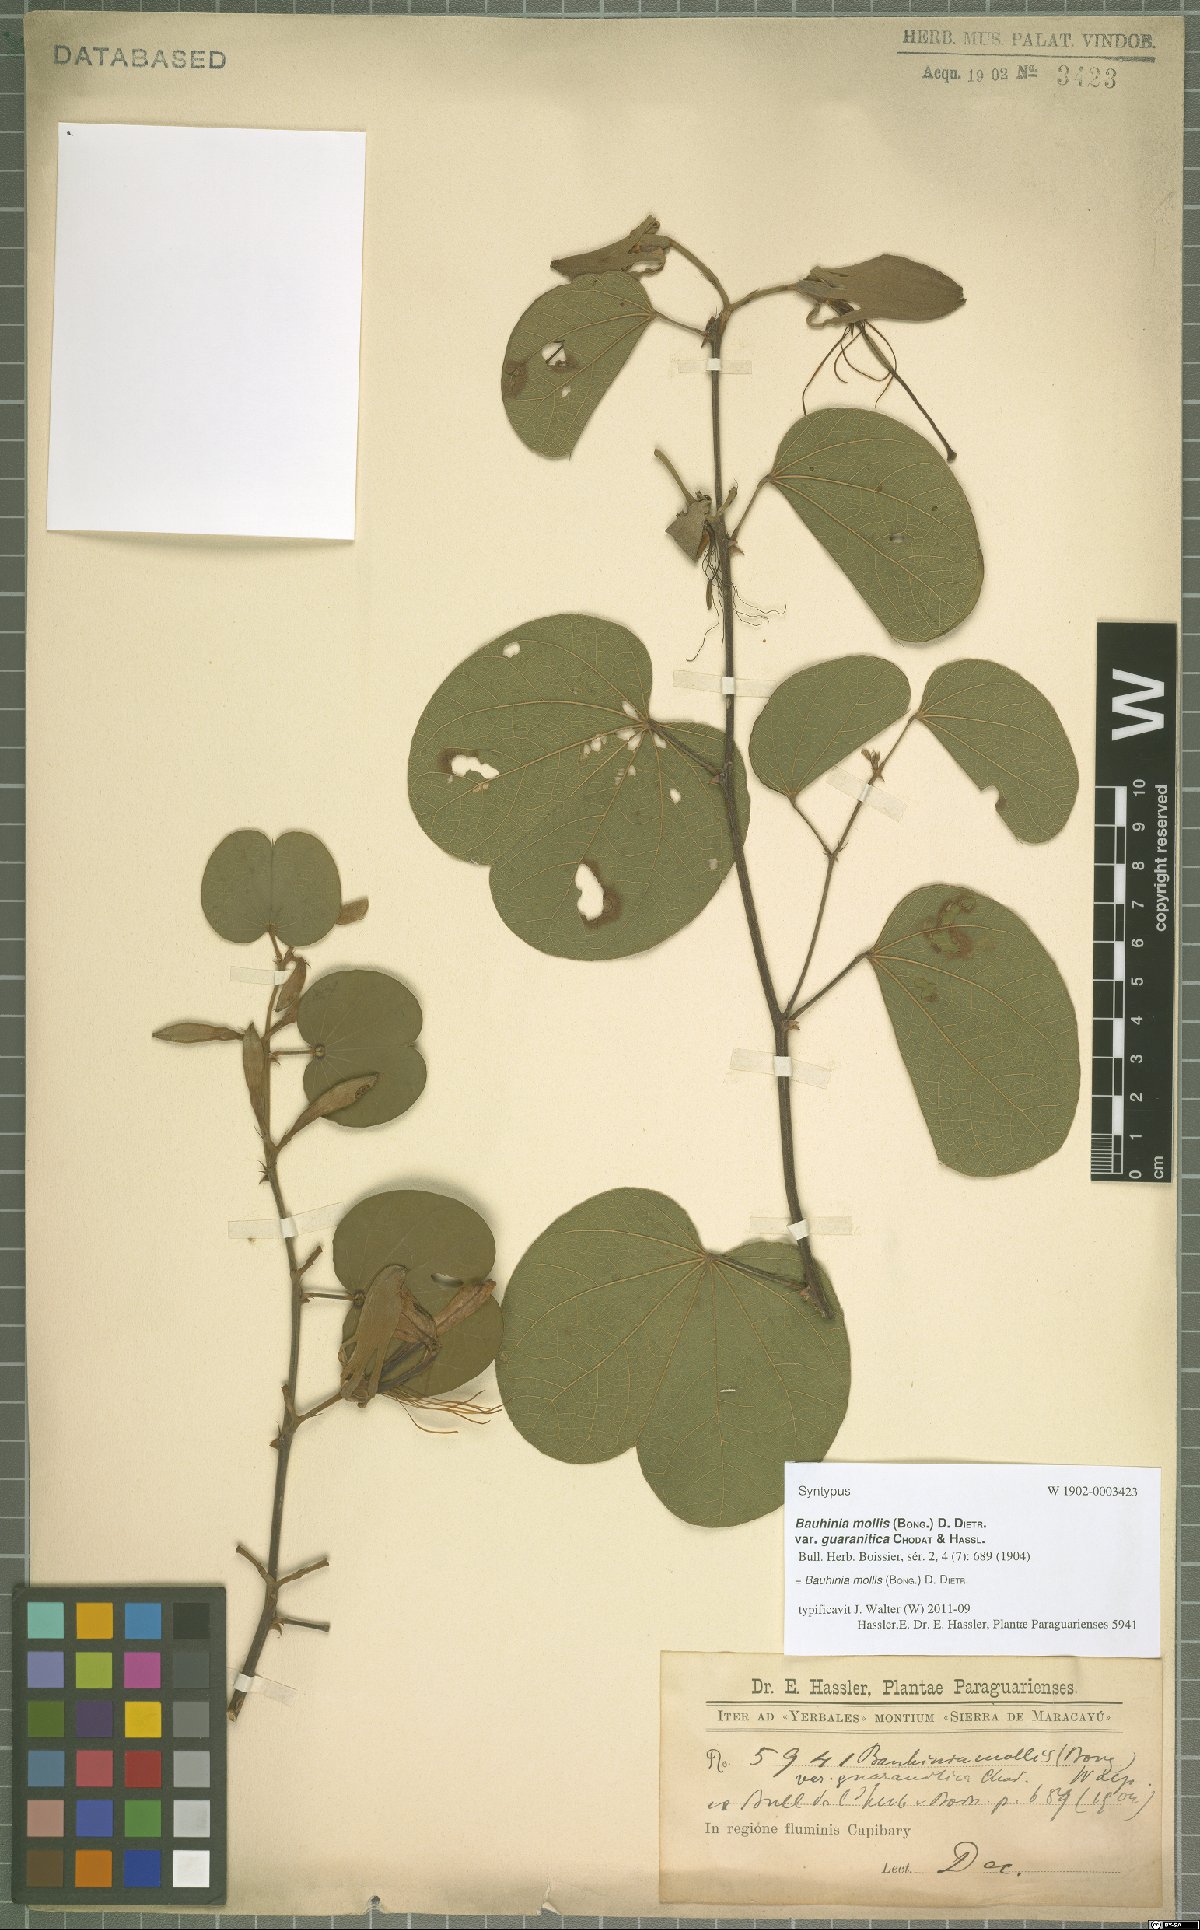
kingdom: Plantae
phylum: Tracheophyta
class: Magnoliopsida
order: Fabales
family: Fabaceae
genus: Bauhinia
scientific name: Bauhinia mollis
